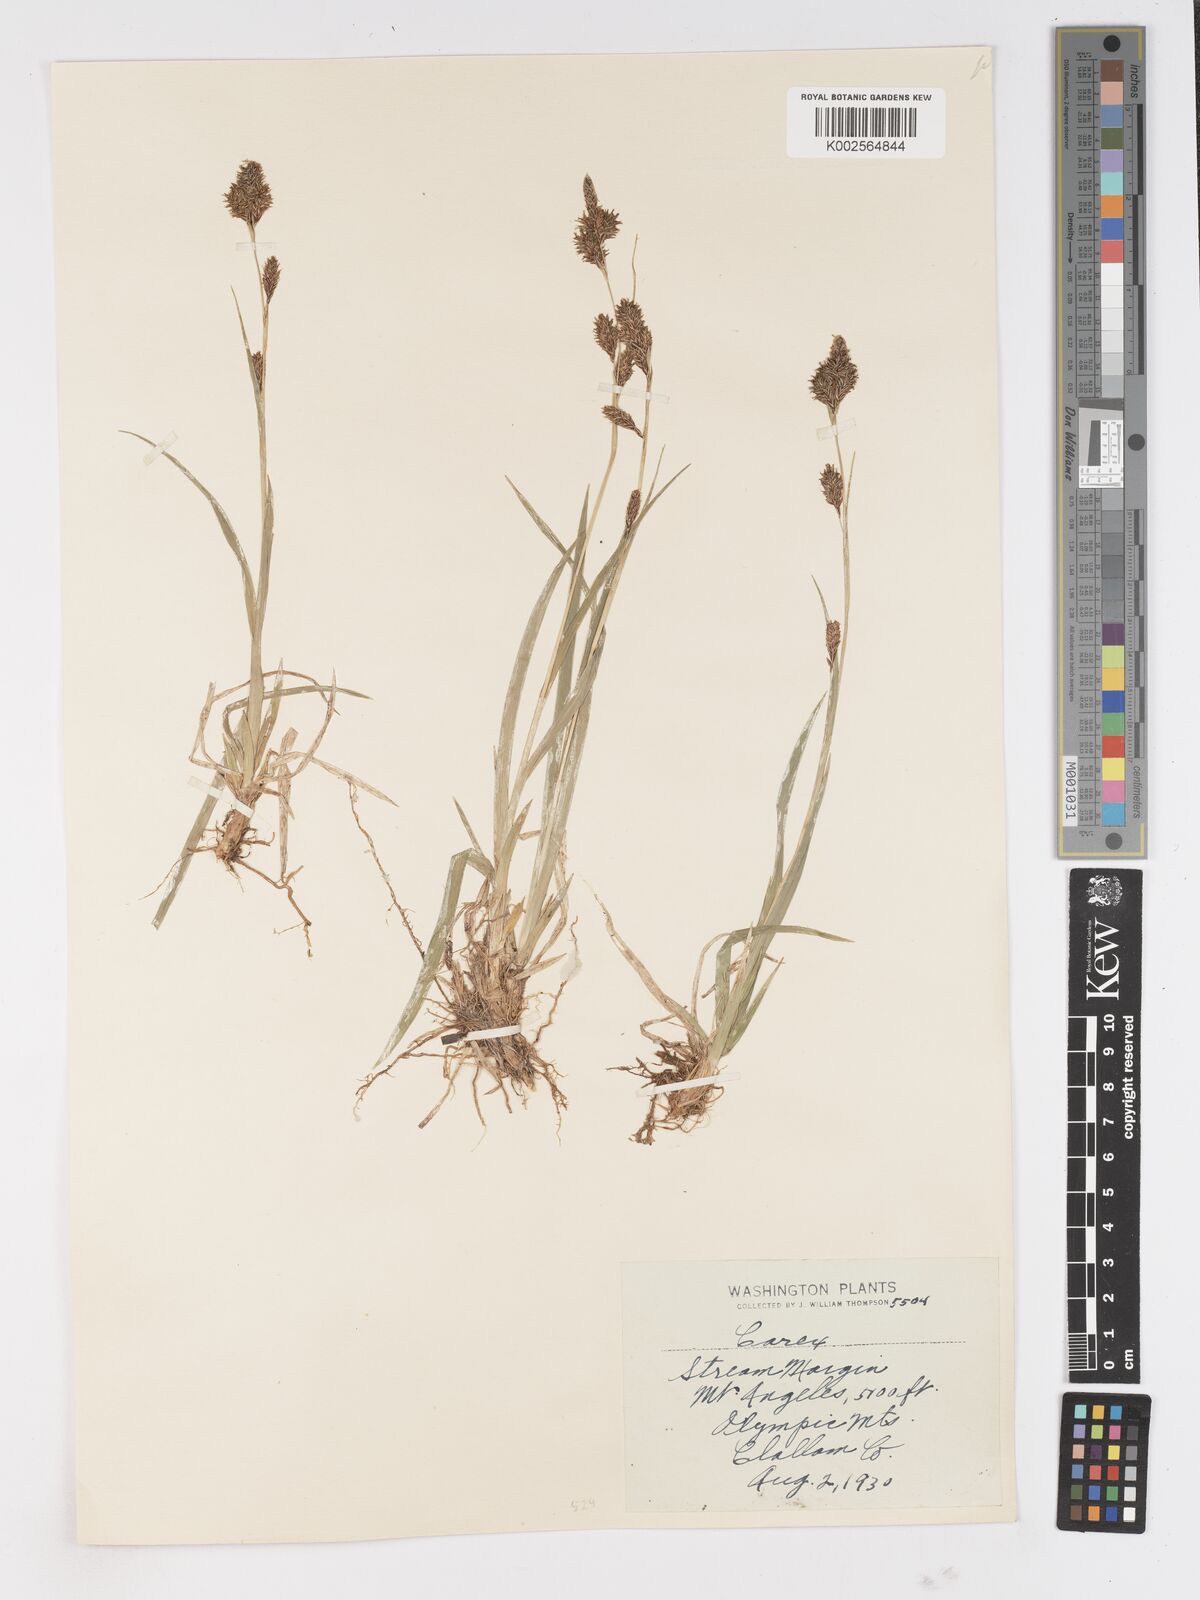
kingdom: Plantae
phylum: Tracheophyta
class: Liliopsida
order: Poales
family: Cyperaceae
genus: Carex
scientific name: Carex
